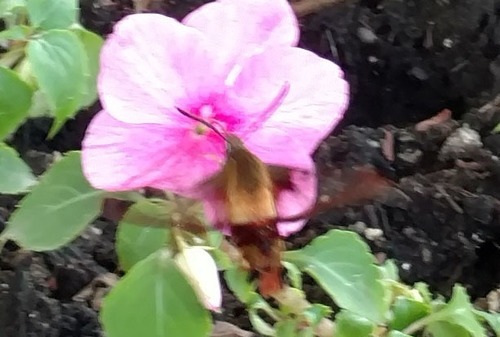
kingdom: Animalia
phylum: Arthropoda
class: Insecta
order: Lepidoptera
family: Sphingidae
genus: Hemaris
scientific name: Hemaris thysbe
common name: Common clear-wing
